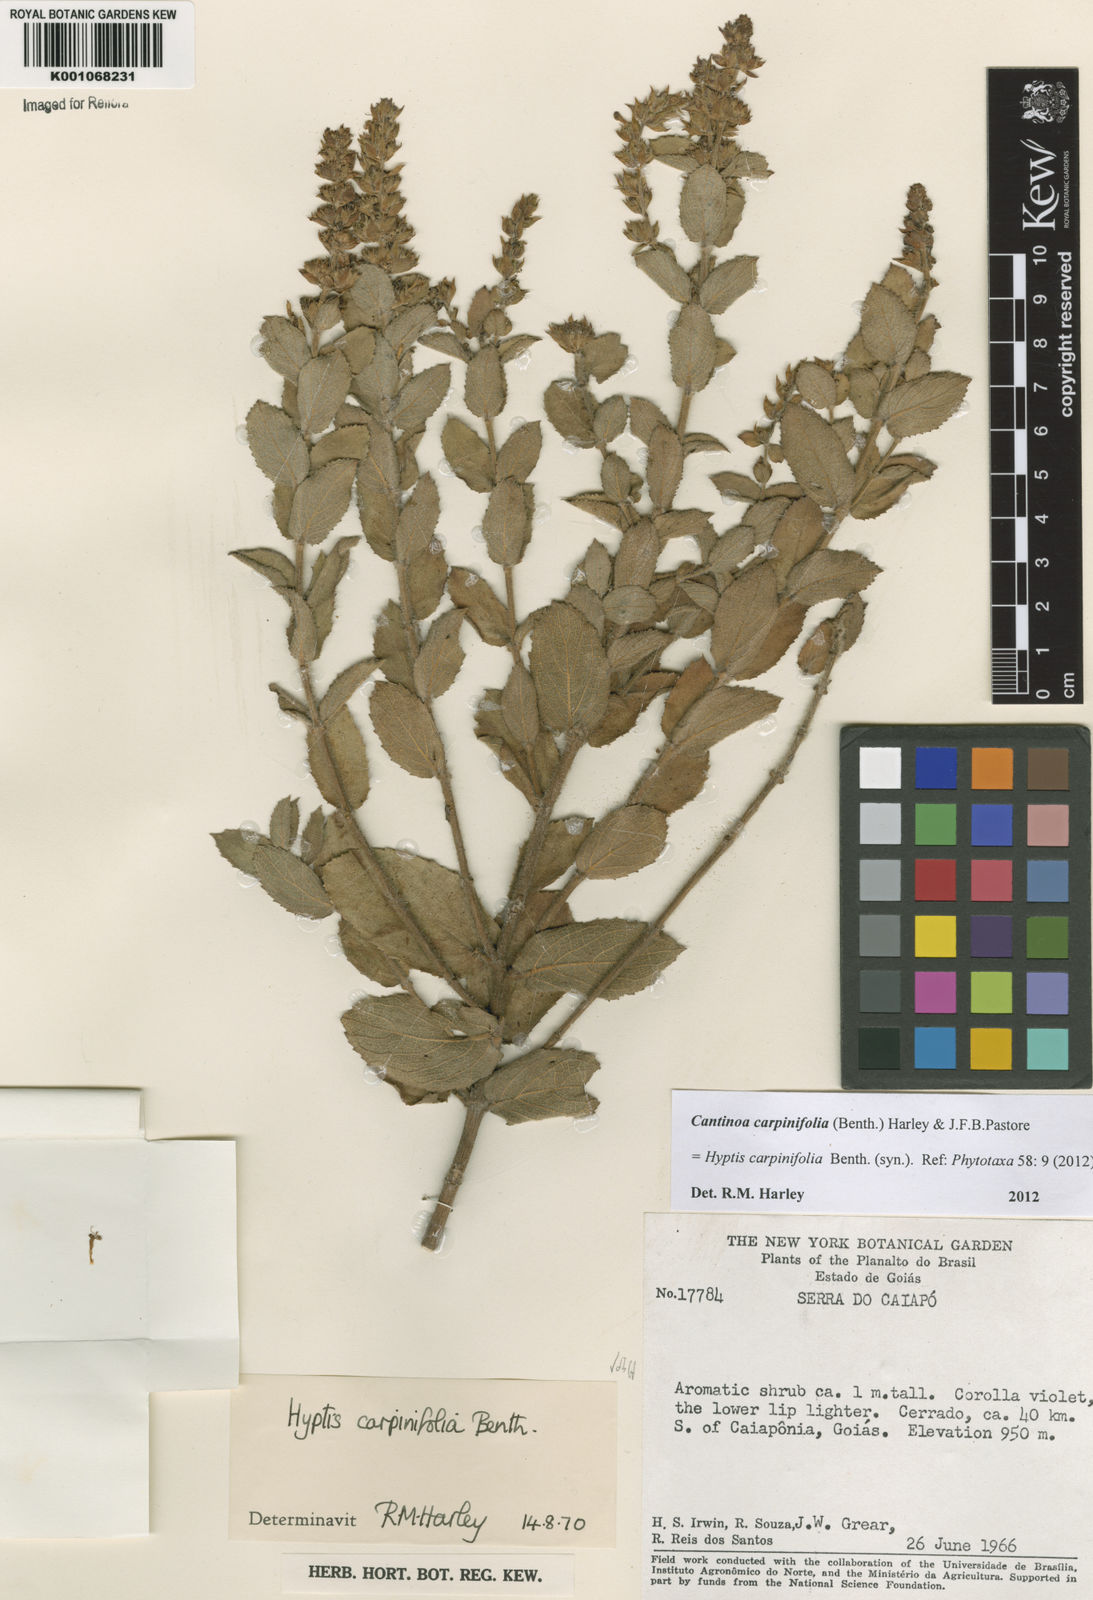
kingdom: Plantae
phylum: Tracheophyta
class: Magnoliopsida
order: Lamiales
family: Lamiaceae
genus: Cantinoa
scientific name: Cantinoa carpinifolia
